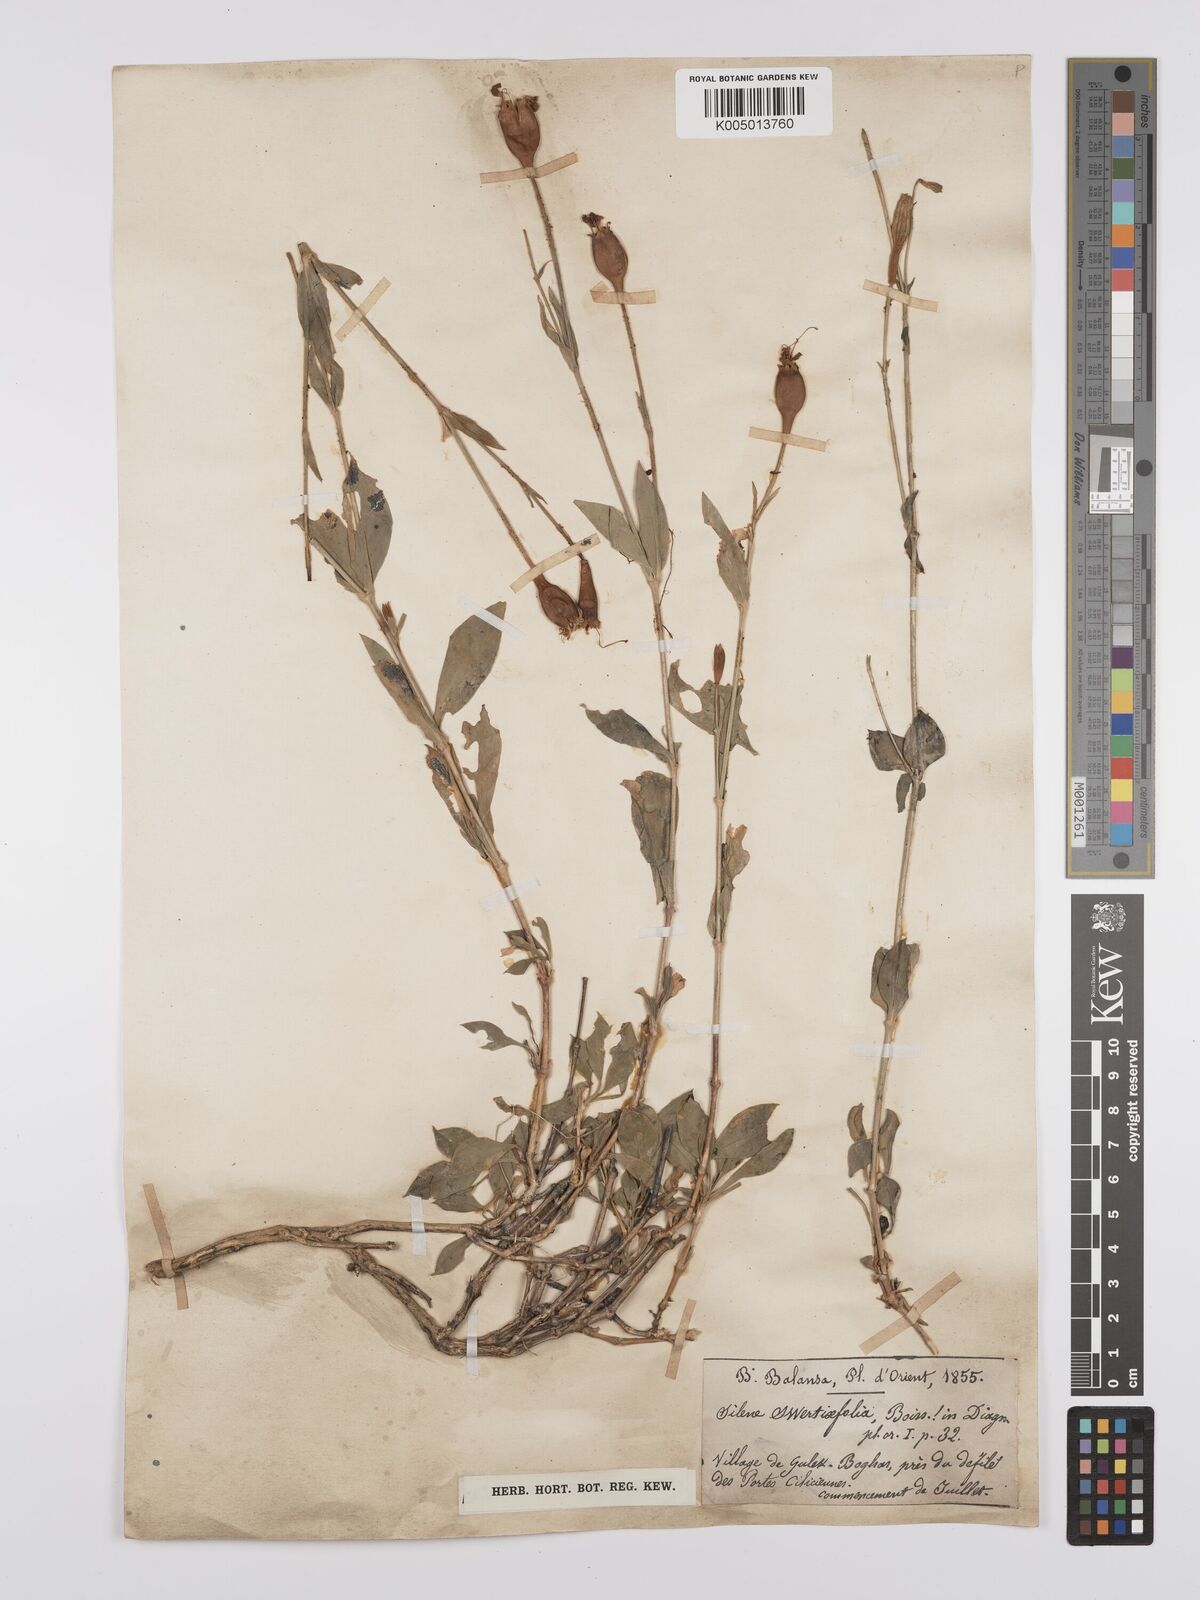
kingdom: Plantae
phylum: Tracheophyta
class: Magnoliopsida
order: Caryophyllales
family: Caryophyllaceae
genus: Silene
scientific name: Silene swertiifolia
